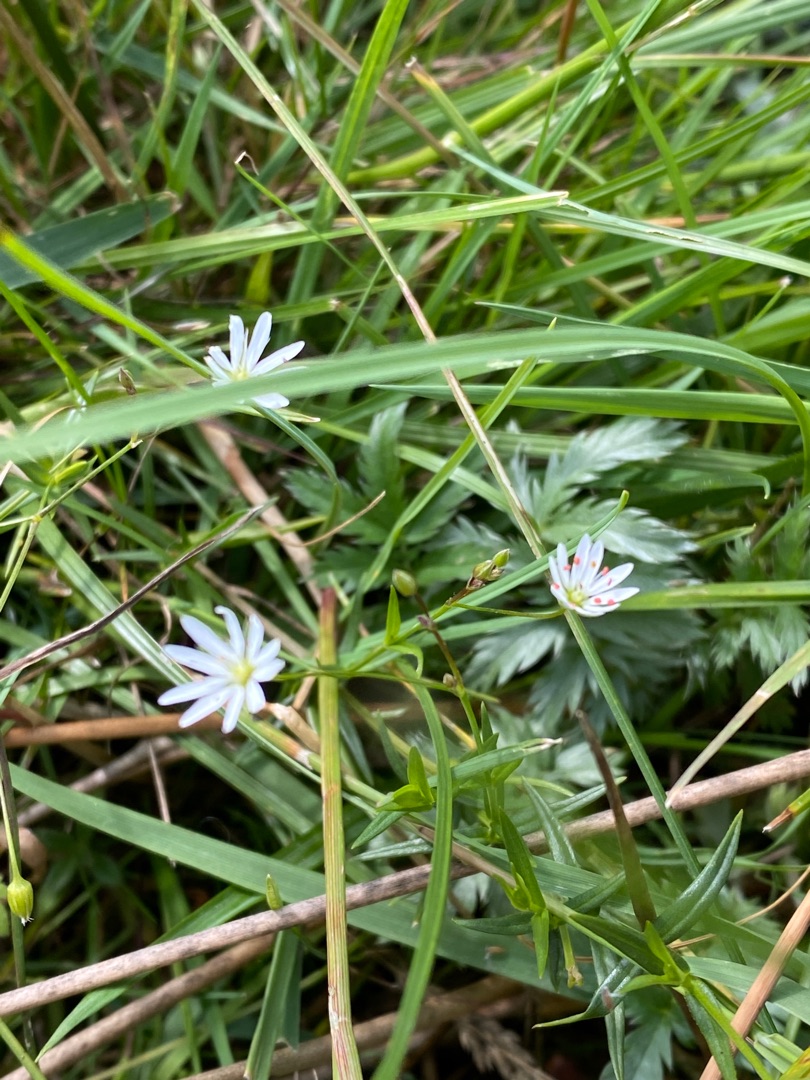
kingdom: Plantae
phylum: Tracheophyta
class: Magnoliopsida
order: Caryophyllales
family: Caryophyllaceae
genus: Stellaria
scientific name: Stellaria graminea
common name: Græsbladet fladstjerne
